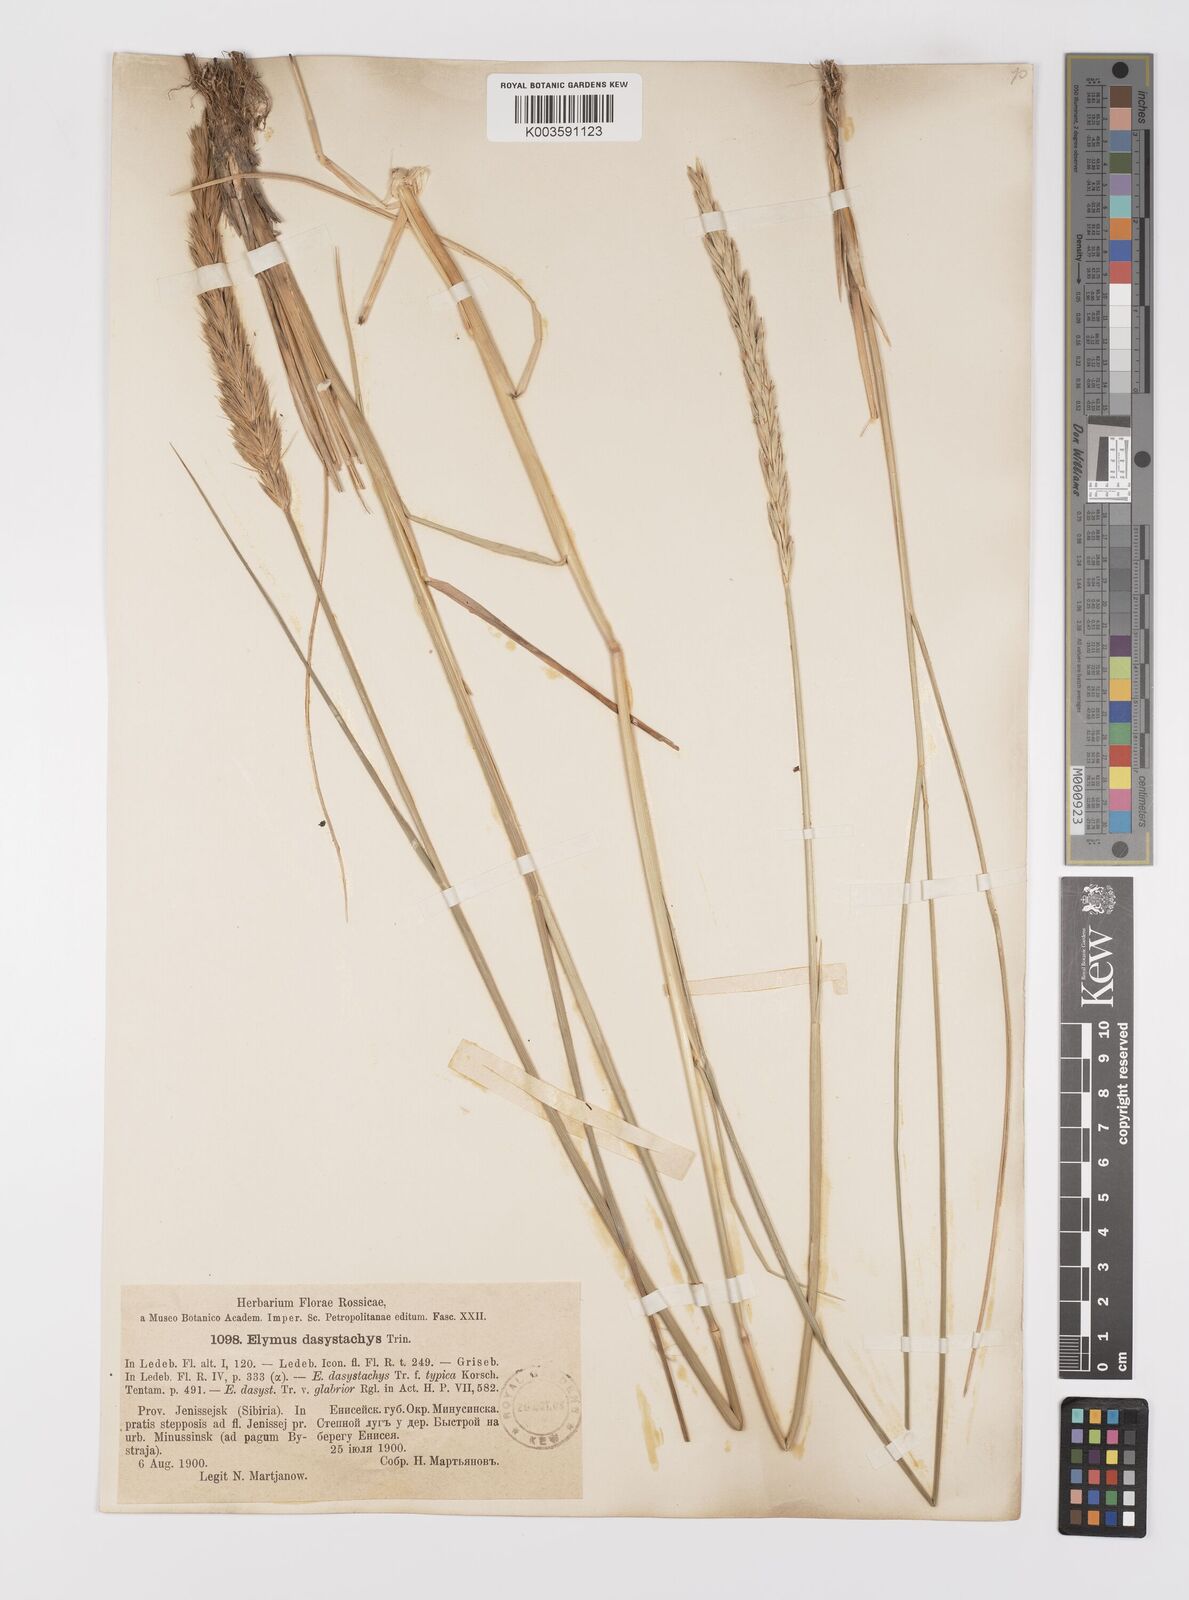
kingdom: Plantae
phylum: Tracheophyta
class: Liliopsida
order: Poales
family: Poaceae
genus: Leymus
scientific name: Leymus secalinus
